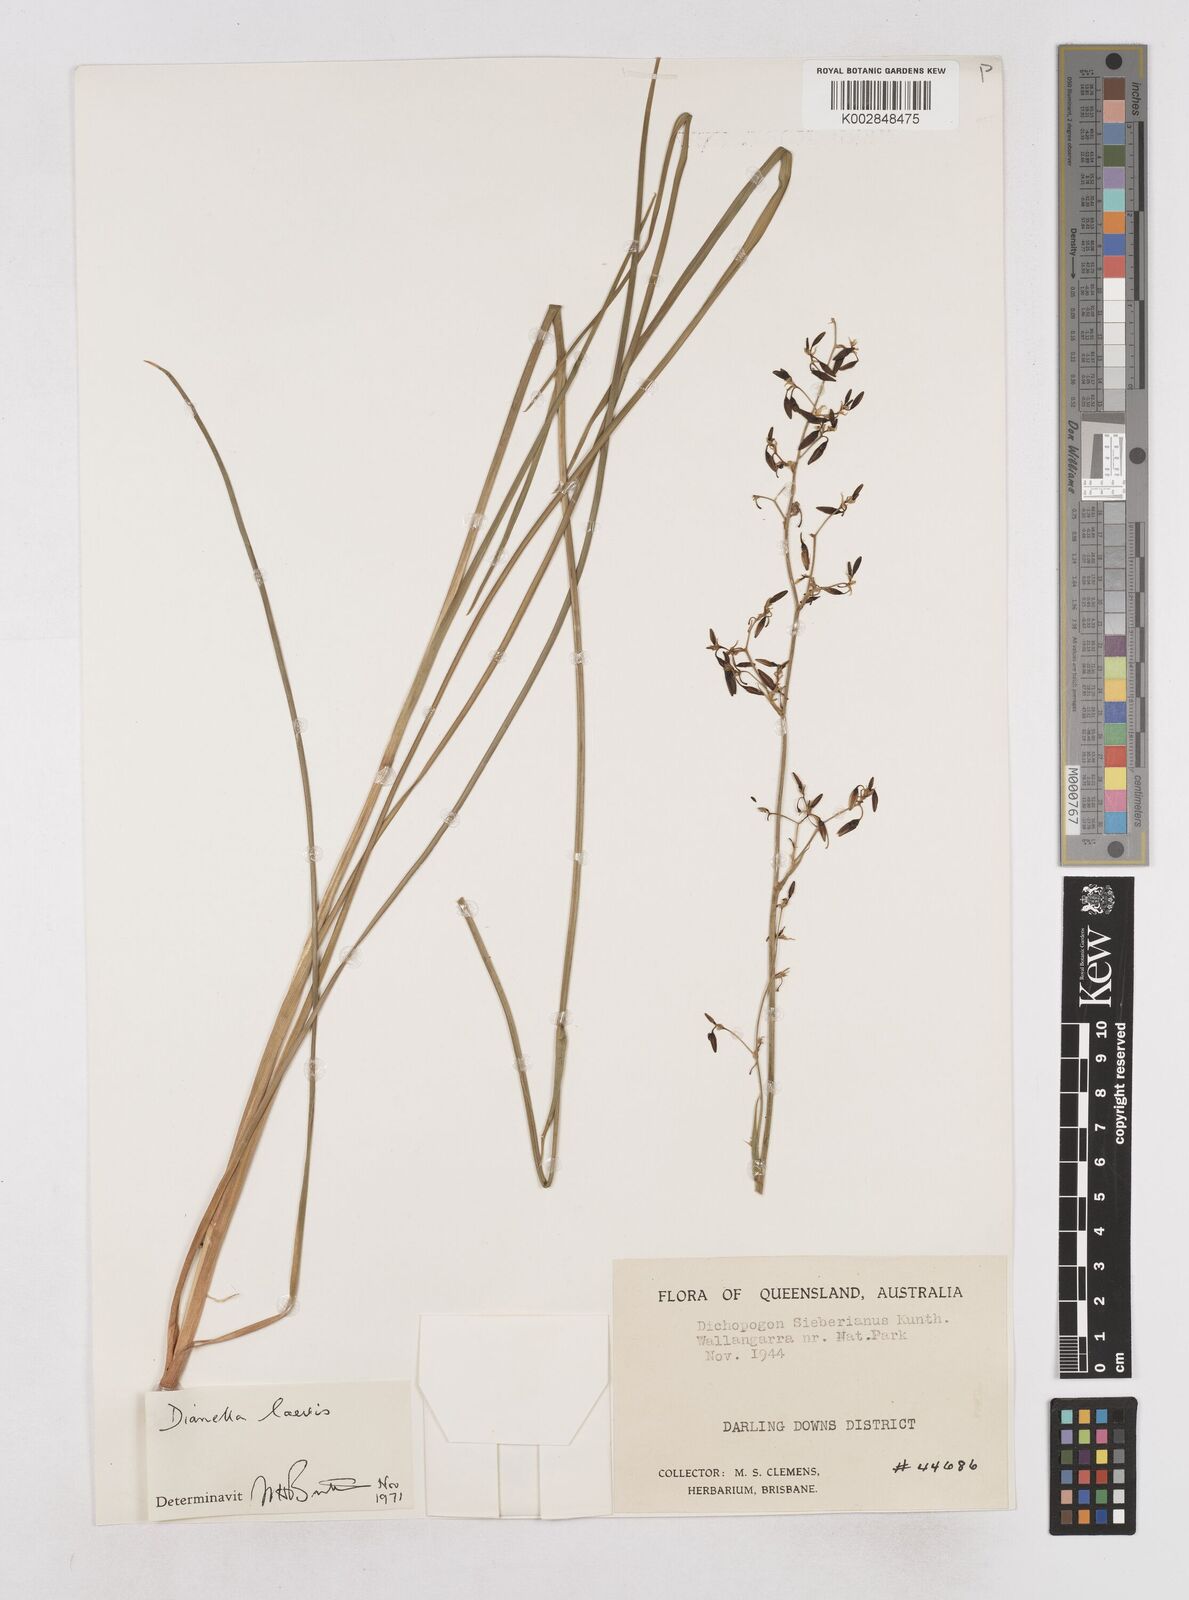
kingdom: Plantae
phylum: Tracheophyta
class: Liliopsida
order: Asparagales
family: Asphodelaceae
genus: Dianella
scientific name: Dianella longifolia
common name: Blue flax-lily
